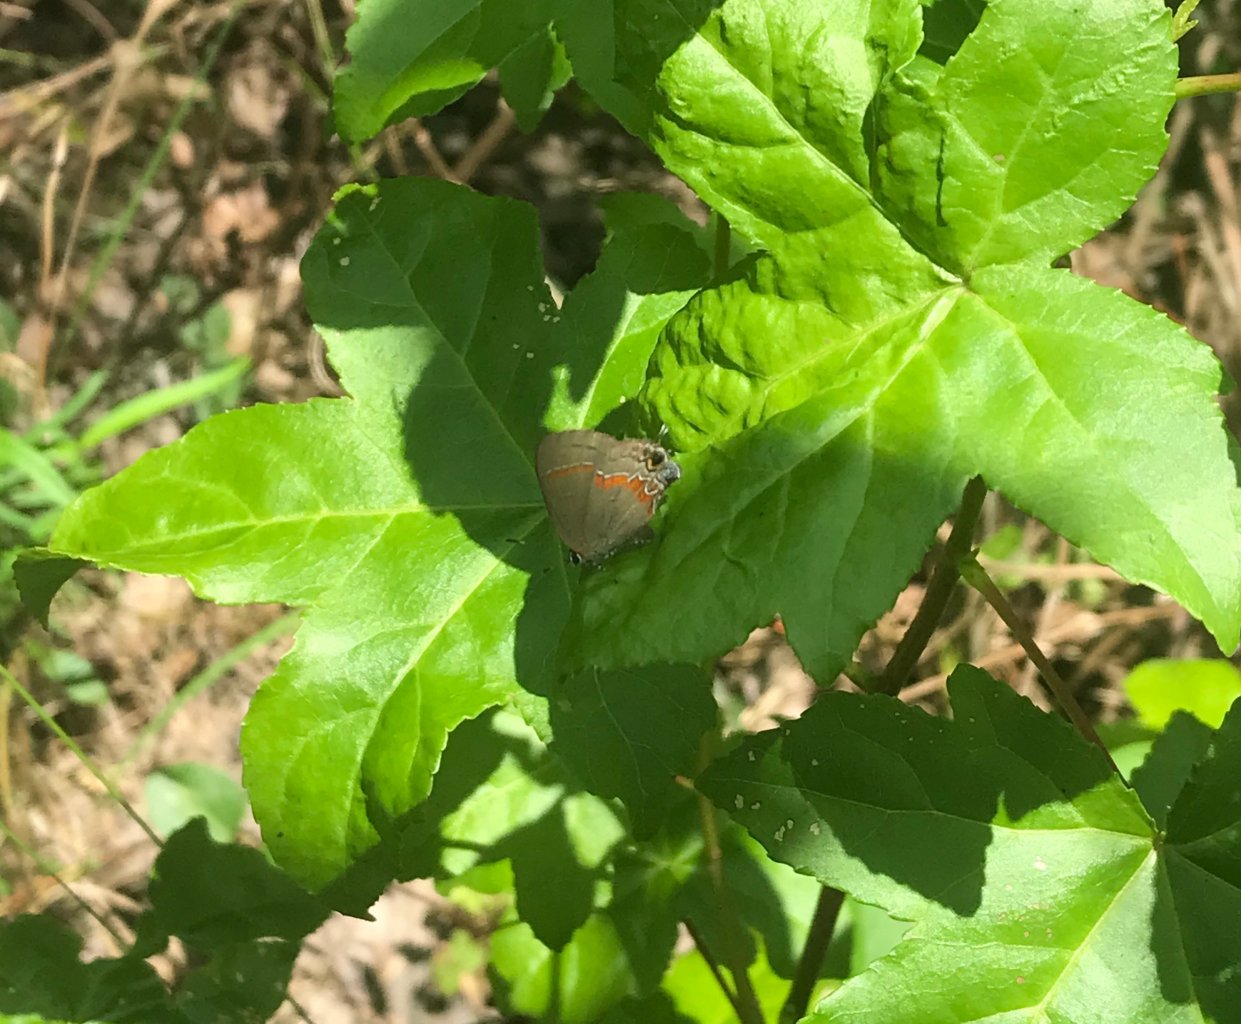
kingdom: Animalia
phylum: Arthropoda
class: Insecta
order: Lepidoptera
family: Lycaenidae
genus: Calycopis
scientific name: Calycopis cecrops
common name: Red-banded Hairstreak
